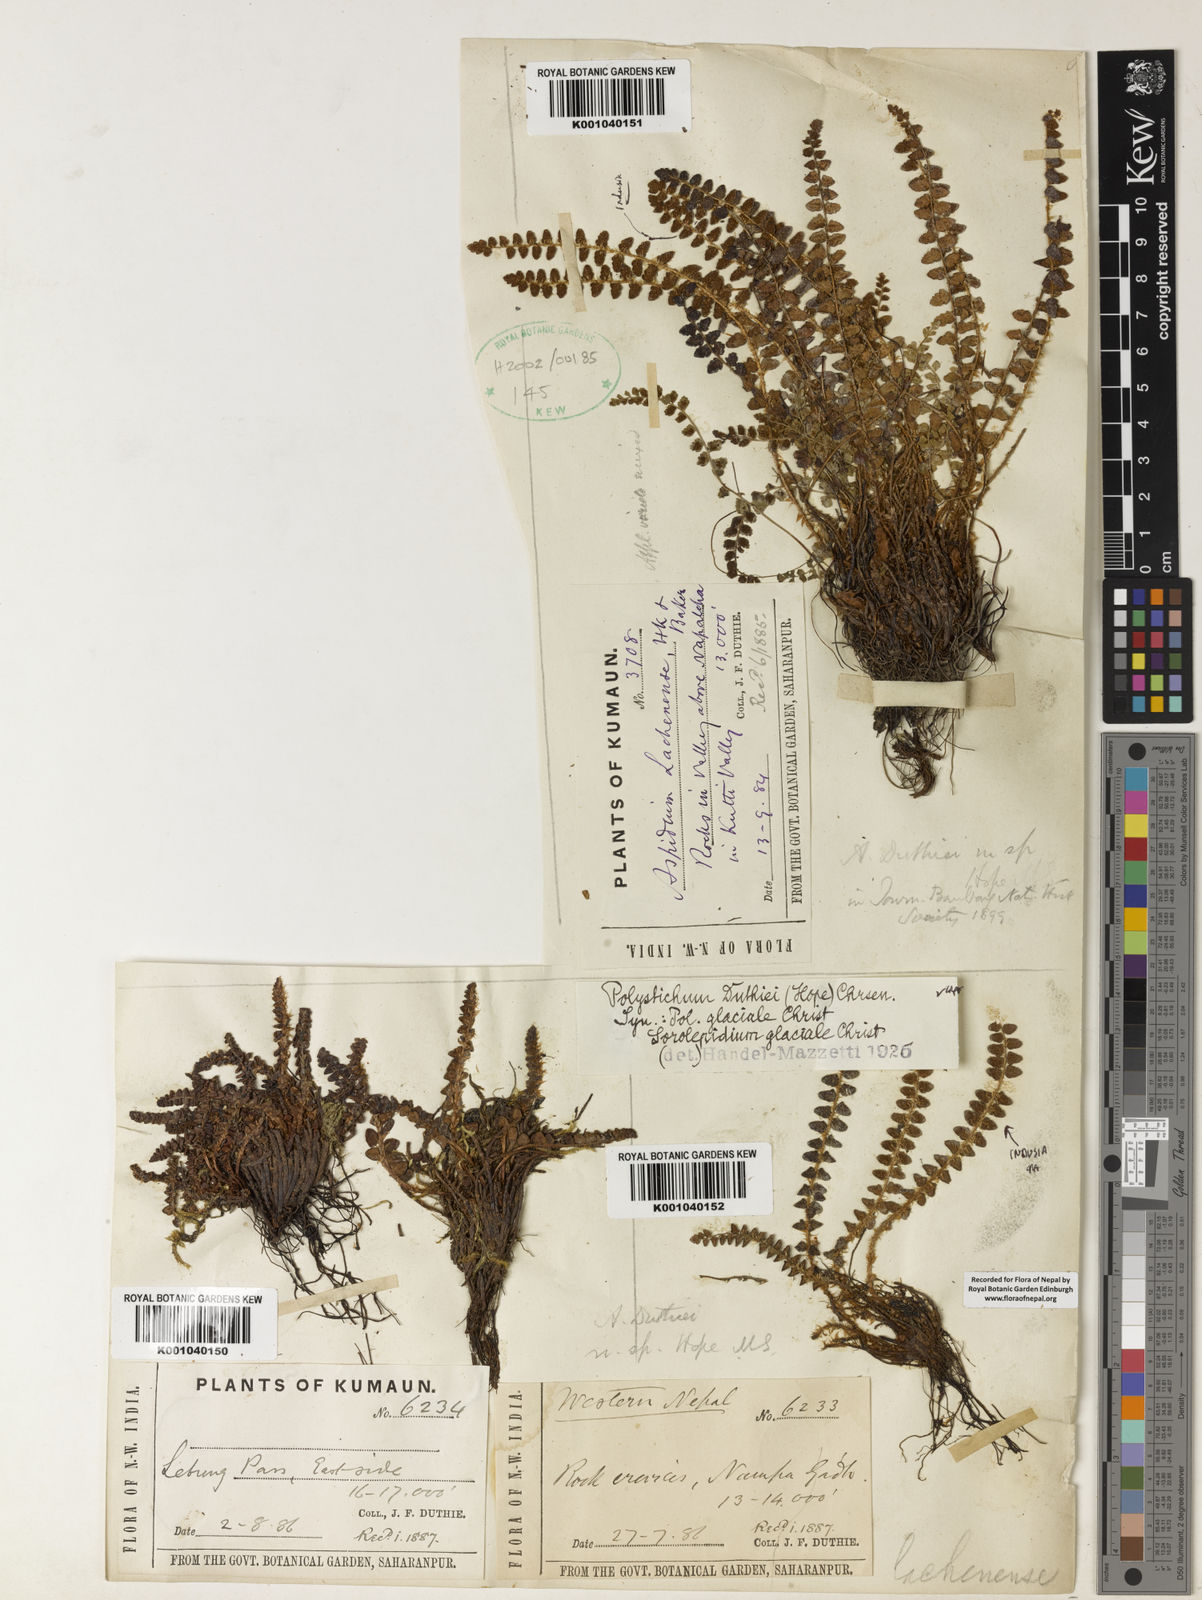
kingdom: Plantae
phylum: Tracheophyta
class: Polypodiopsida
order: Polypodiales
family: Dryopteridaceae
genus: Polystichum
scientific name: Polystichum duthiei
